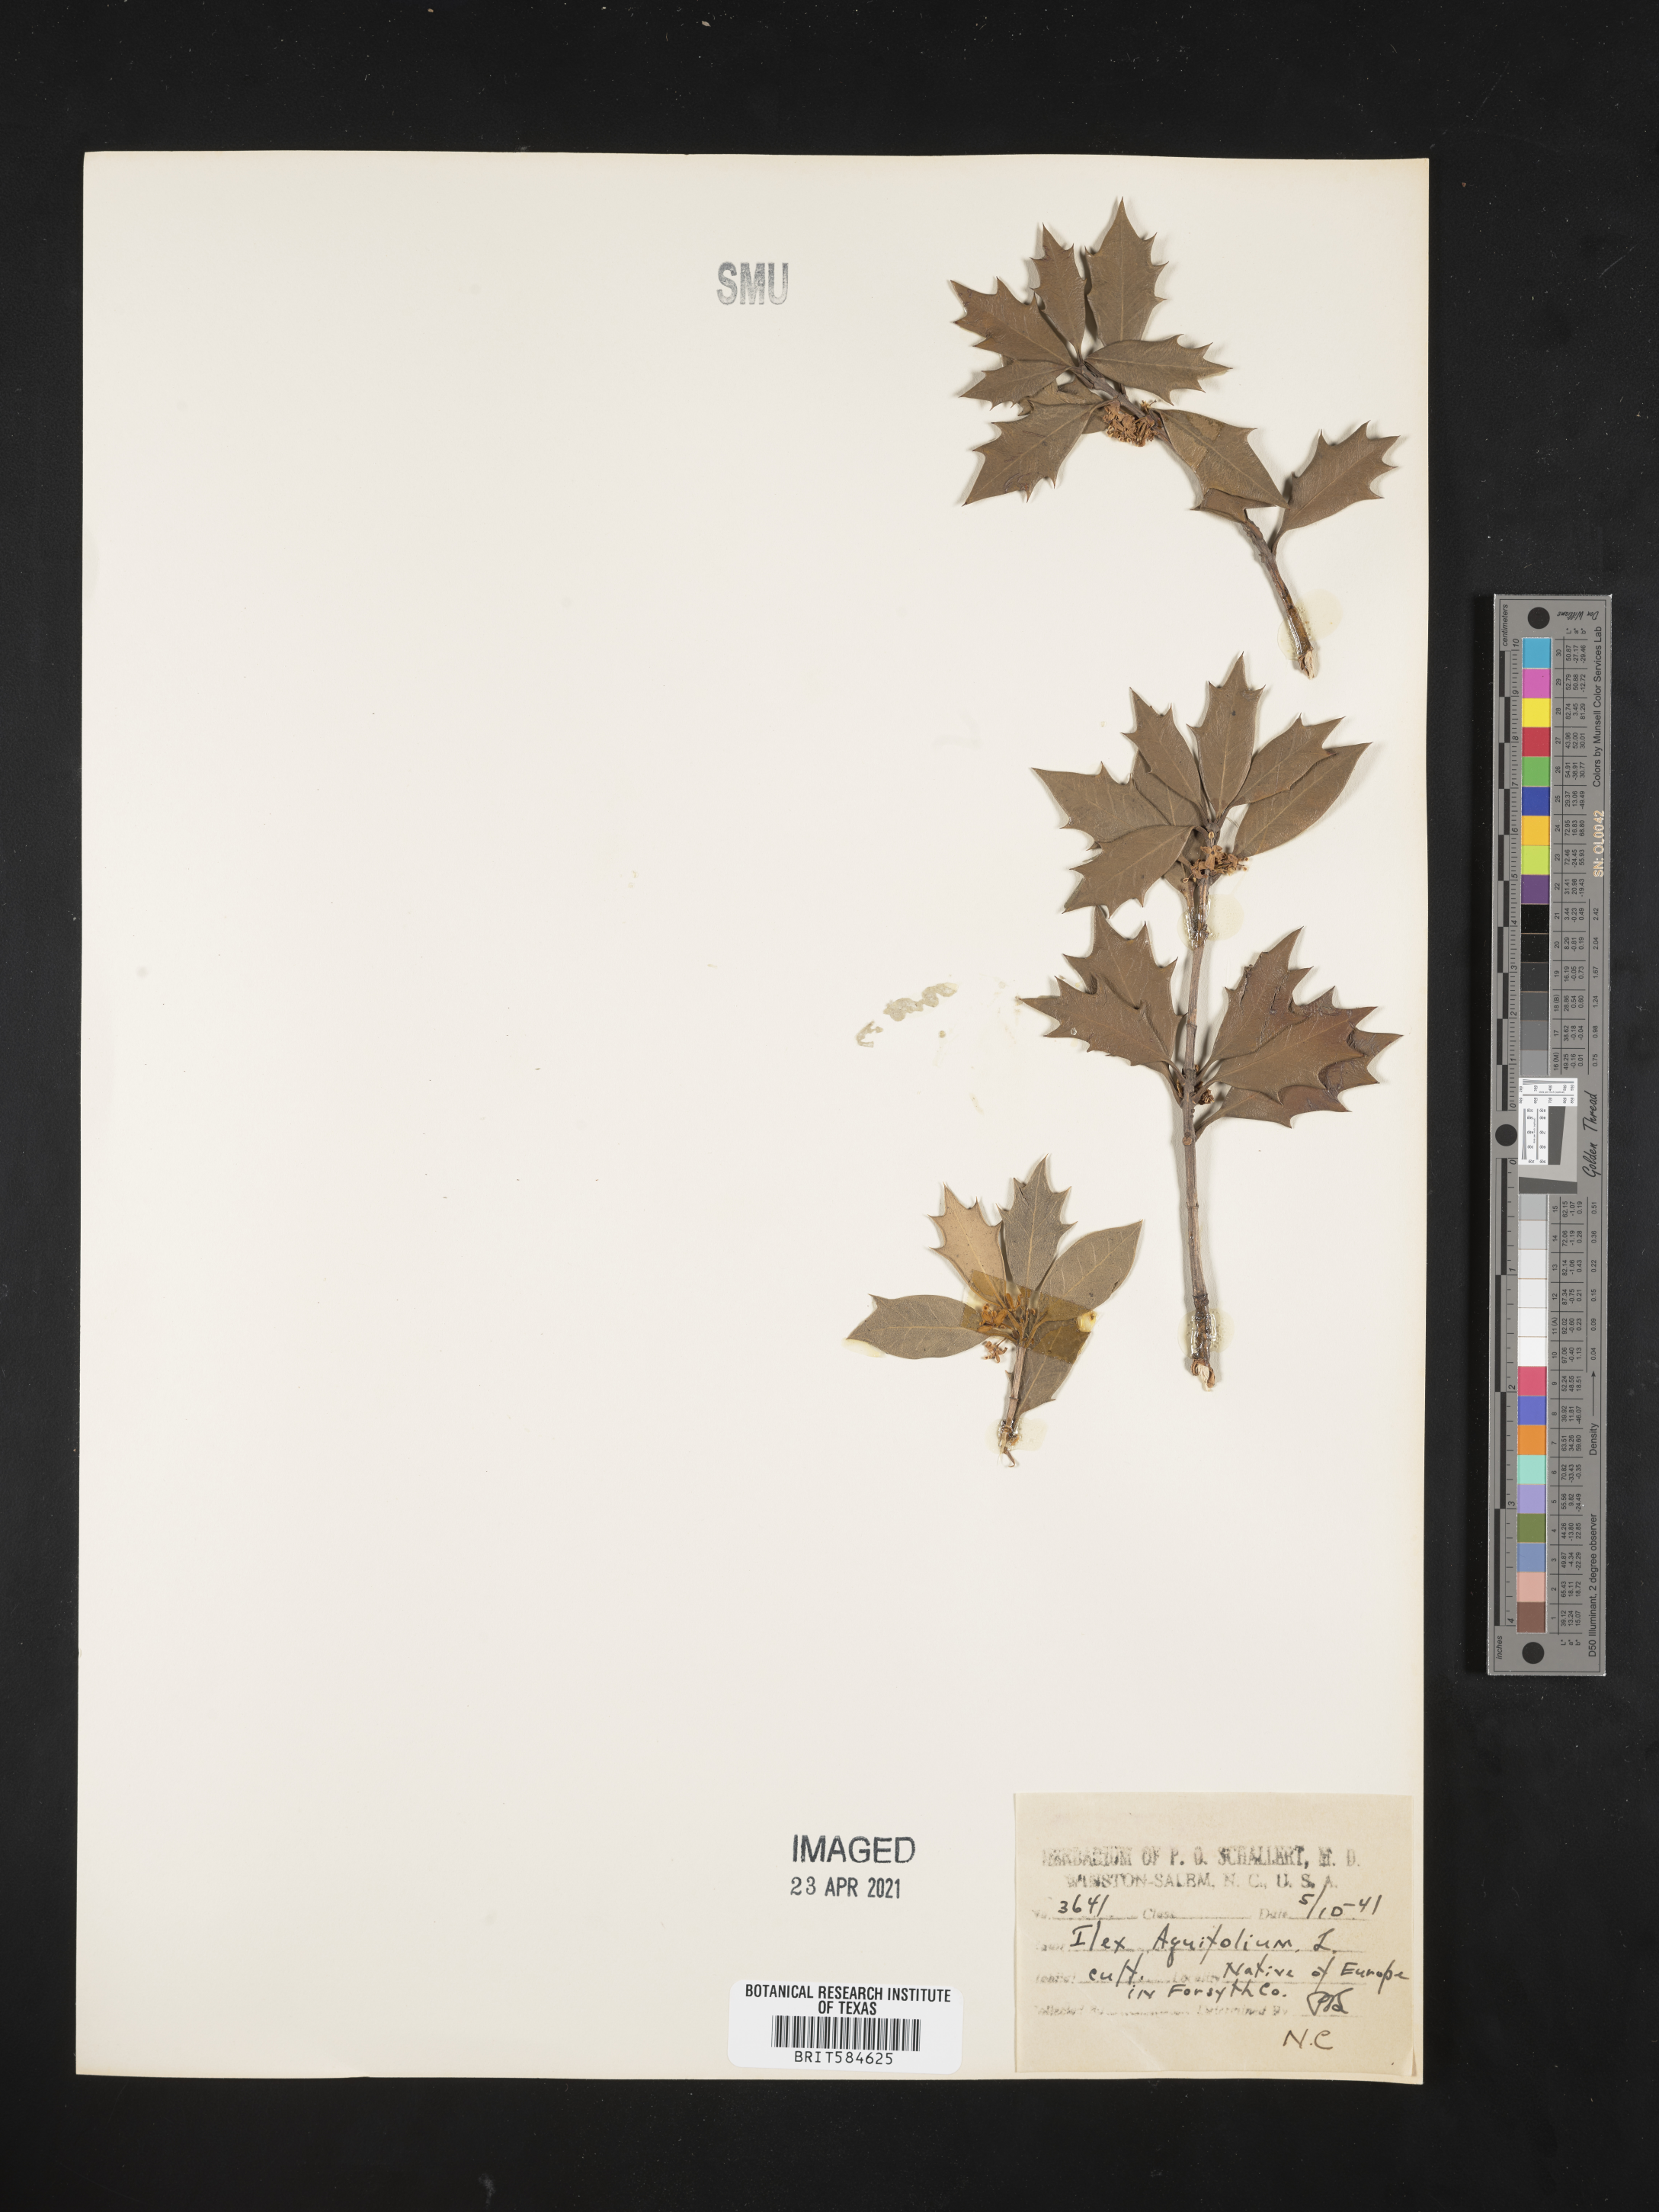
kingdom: Plantae
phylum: Tracheophyta
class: Magnoliopsida
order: Aquifoliales
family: Aquifoliaceae
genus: Ilex
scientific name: Ilex aquifolium
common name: English holly
